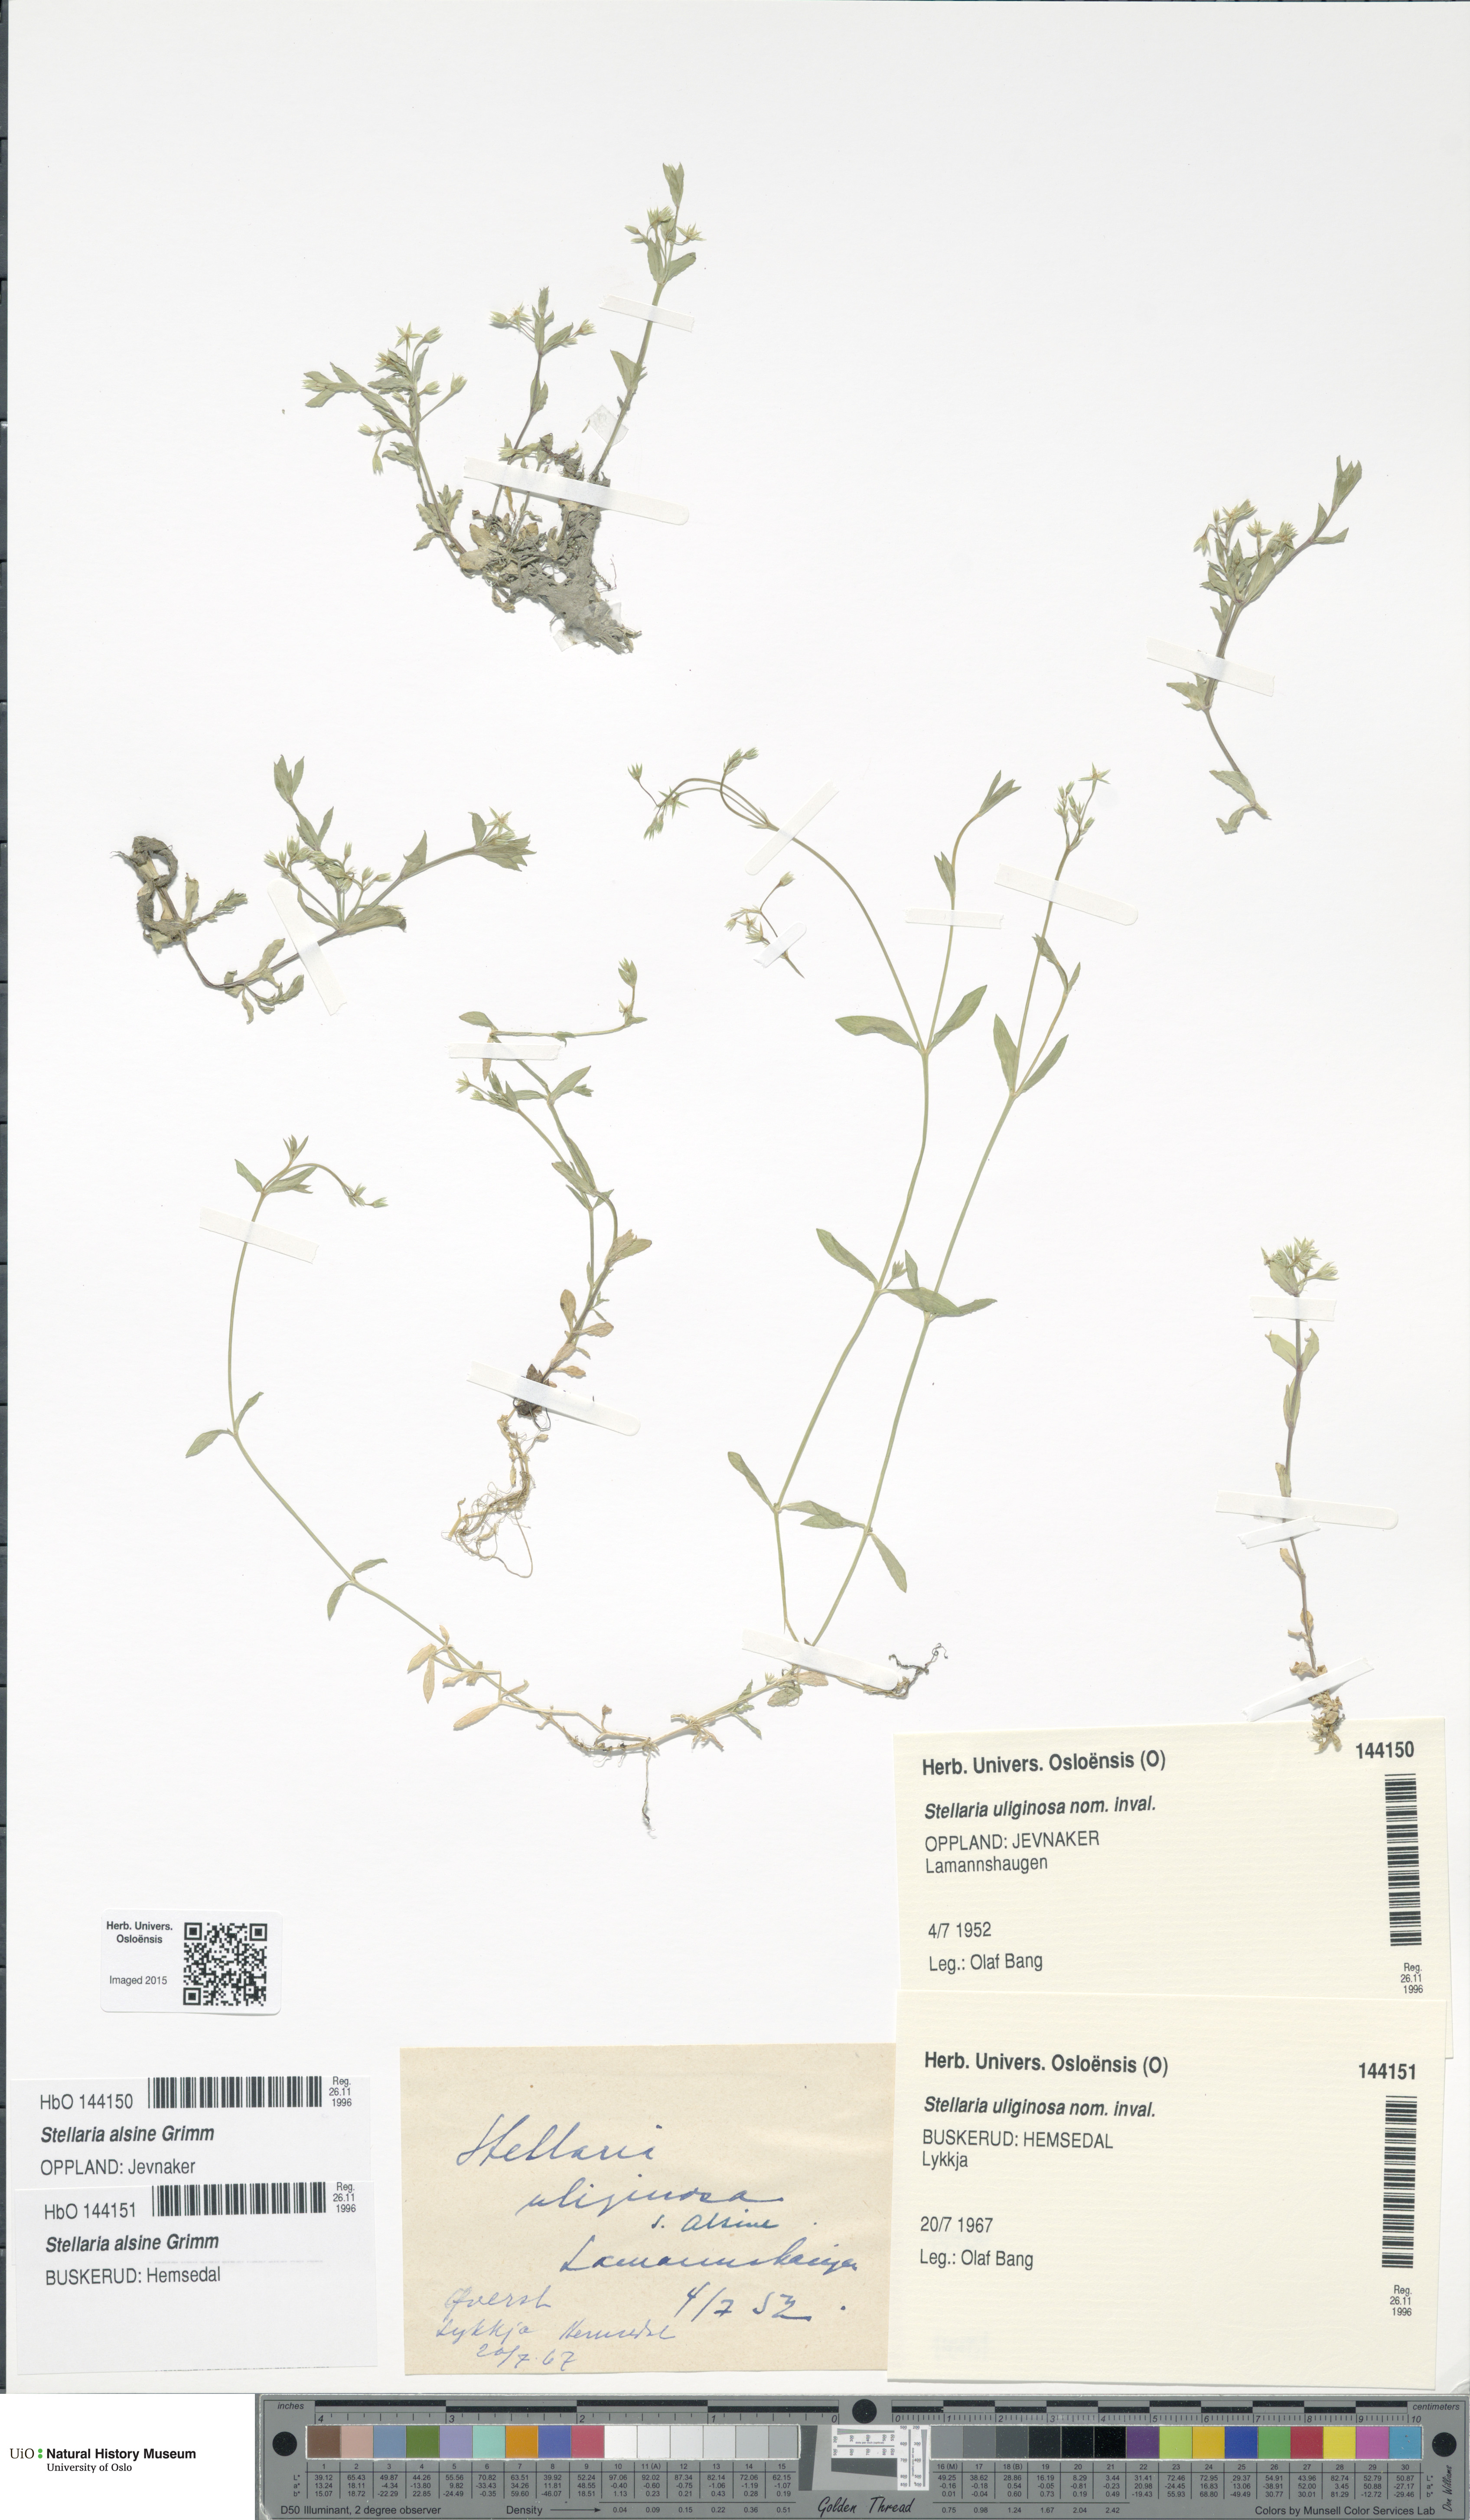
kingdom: Plantae
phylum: Tracheophyta
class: Magnoliopsida
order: Caryophyllales
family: Caryophyllaceae
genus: Stellaria
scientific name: Stellaria alsine
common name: Bog stitchwort
